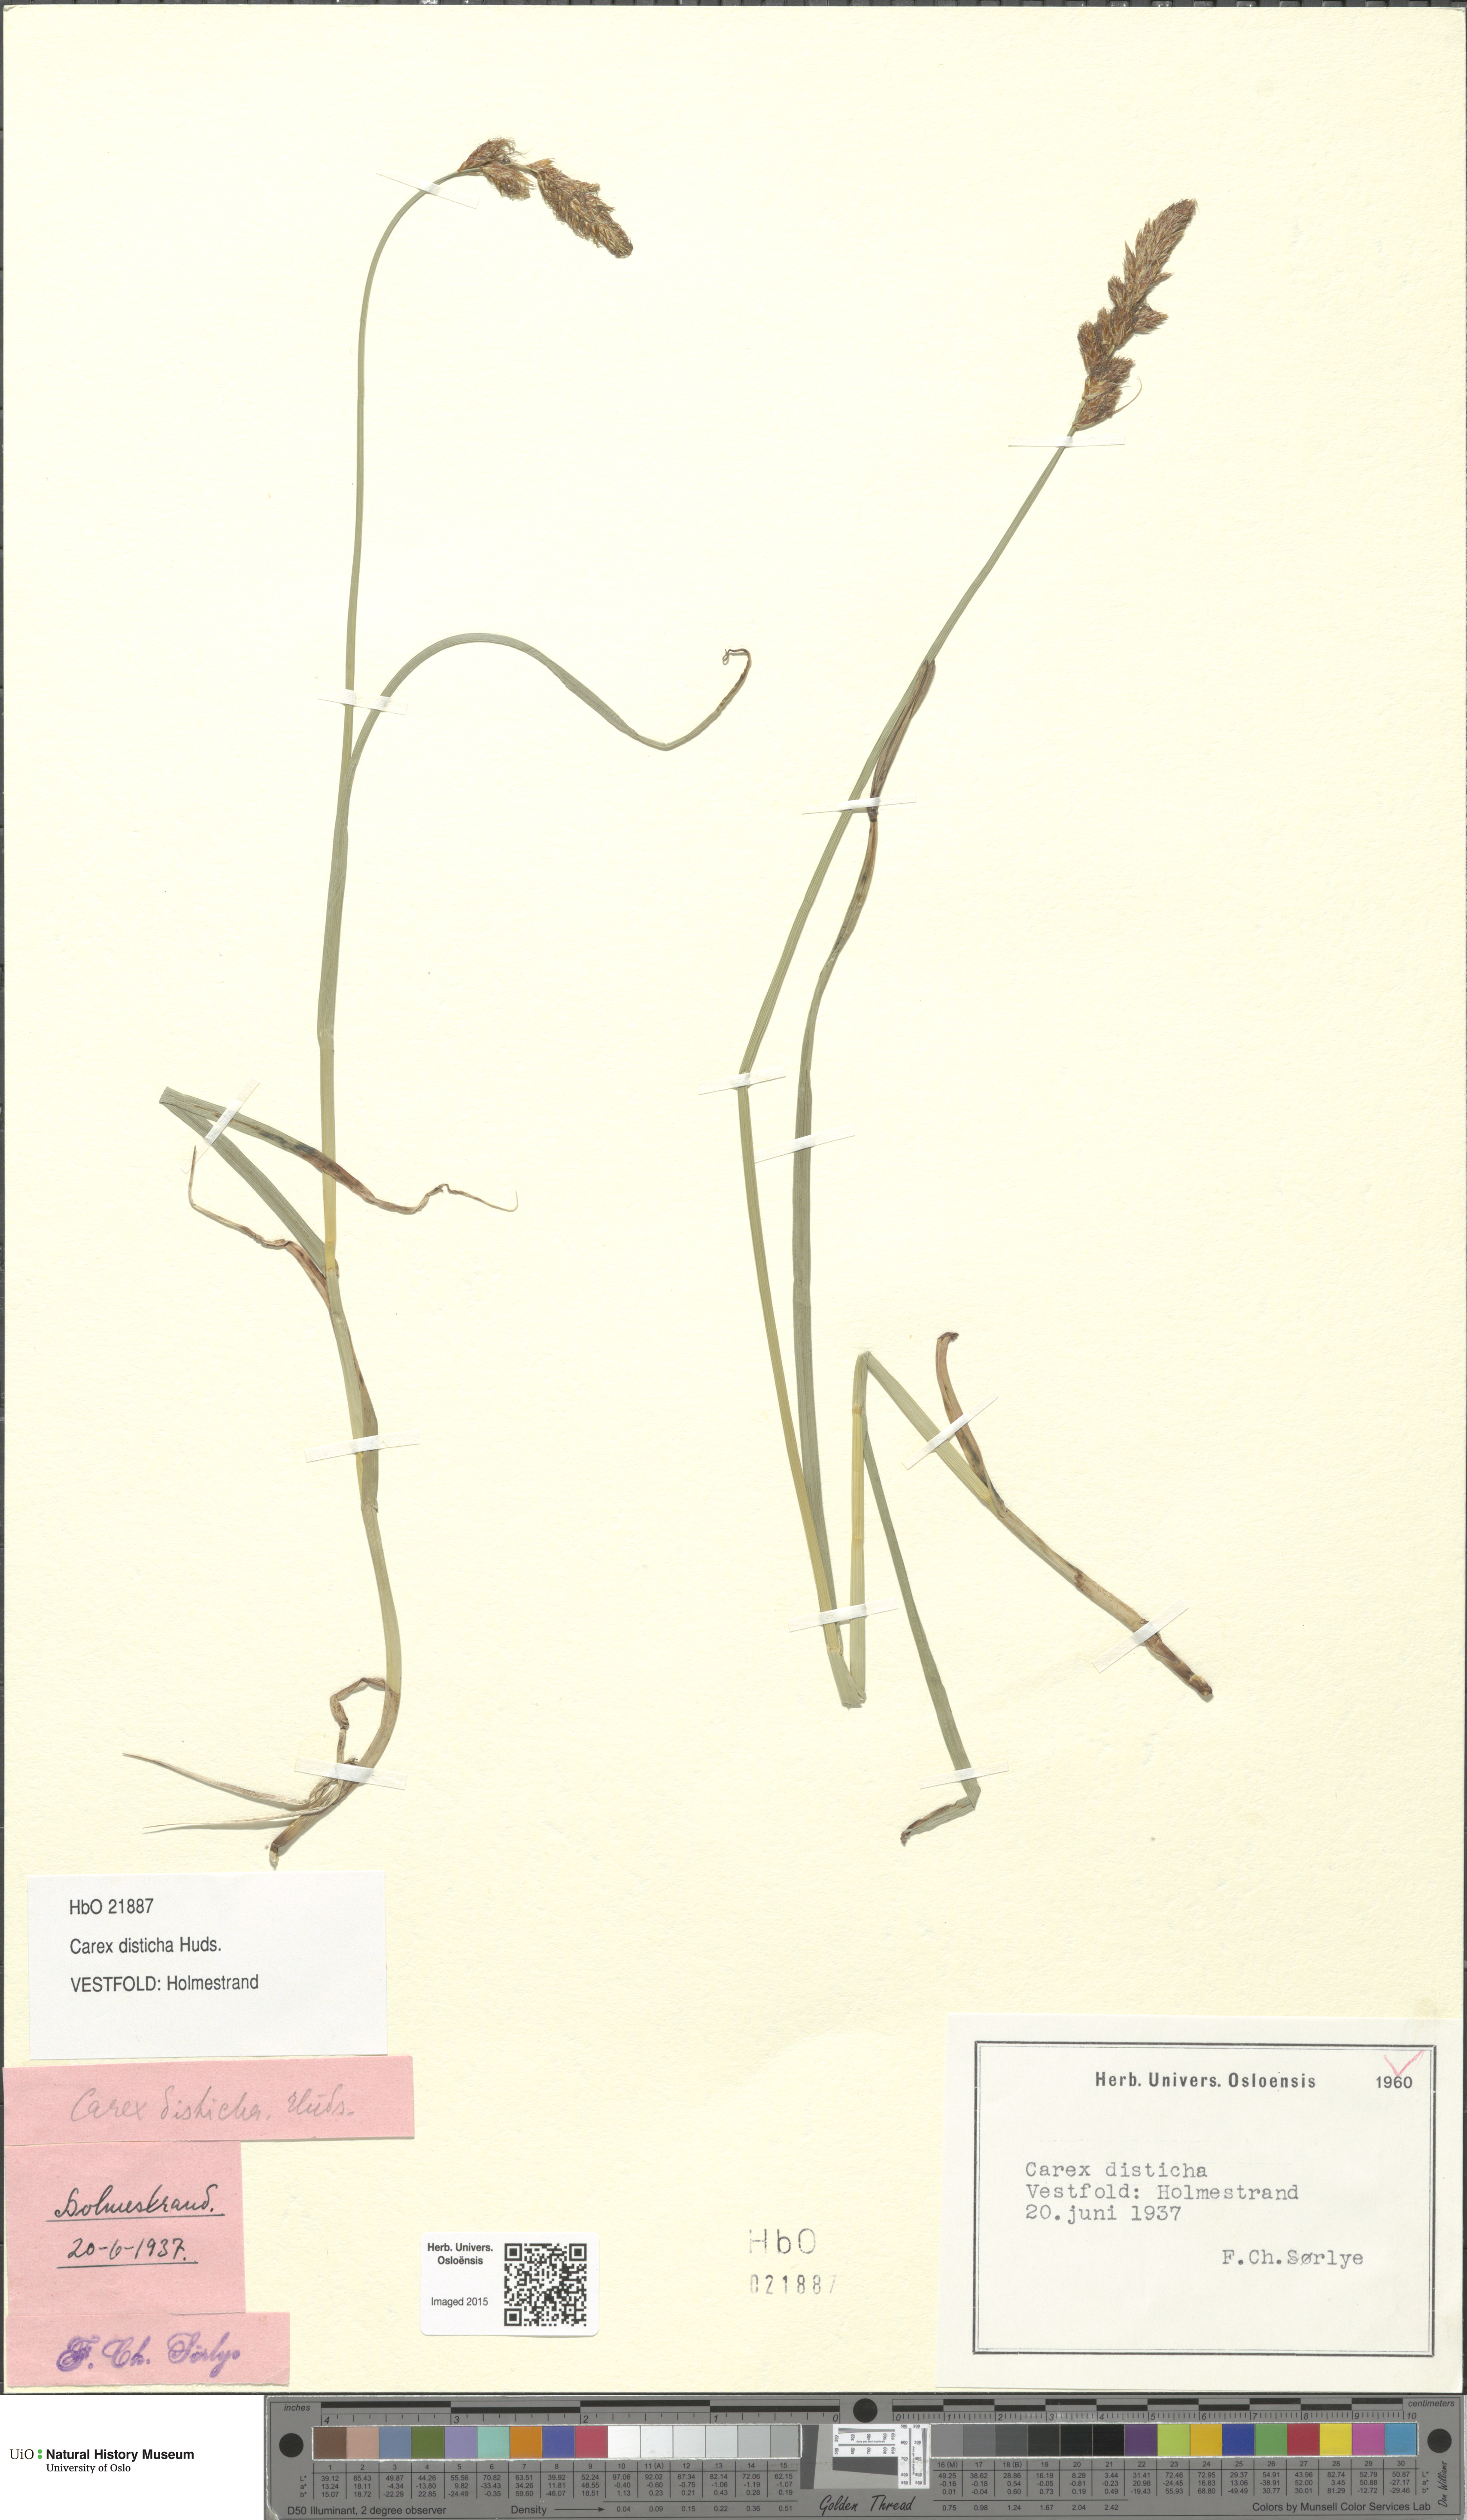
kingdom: Plantae
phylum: Tracheophyta
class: Liliopsida
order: Poales
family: Cyperaceae
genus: Carex
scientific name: Carex disticha
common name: Brown sedge
